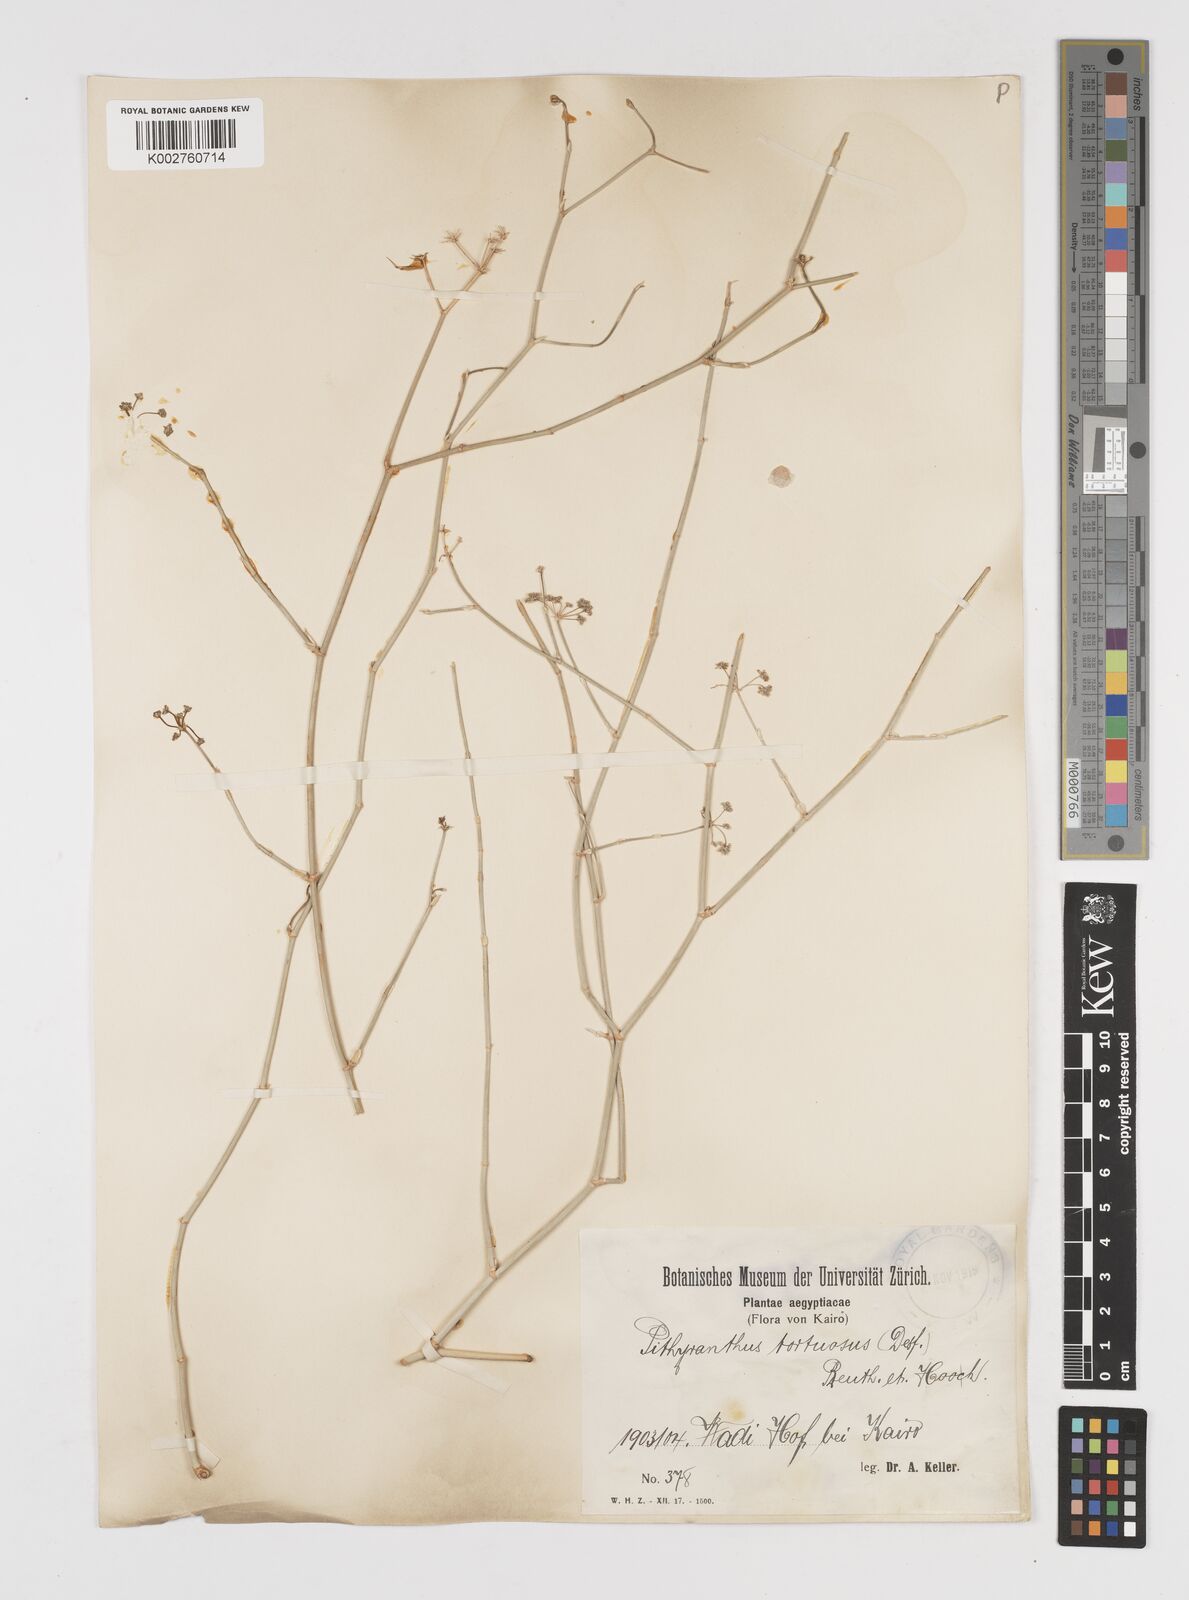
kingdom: Plantae
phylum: Tracheophyta
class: Magnoliopsida
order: Apiales
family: Apiaceae
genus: Deverra
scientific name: Deverra denudata
